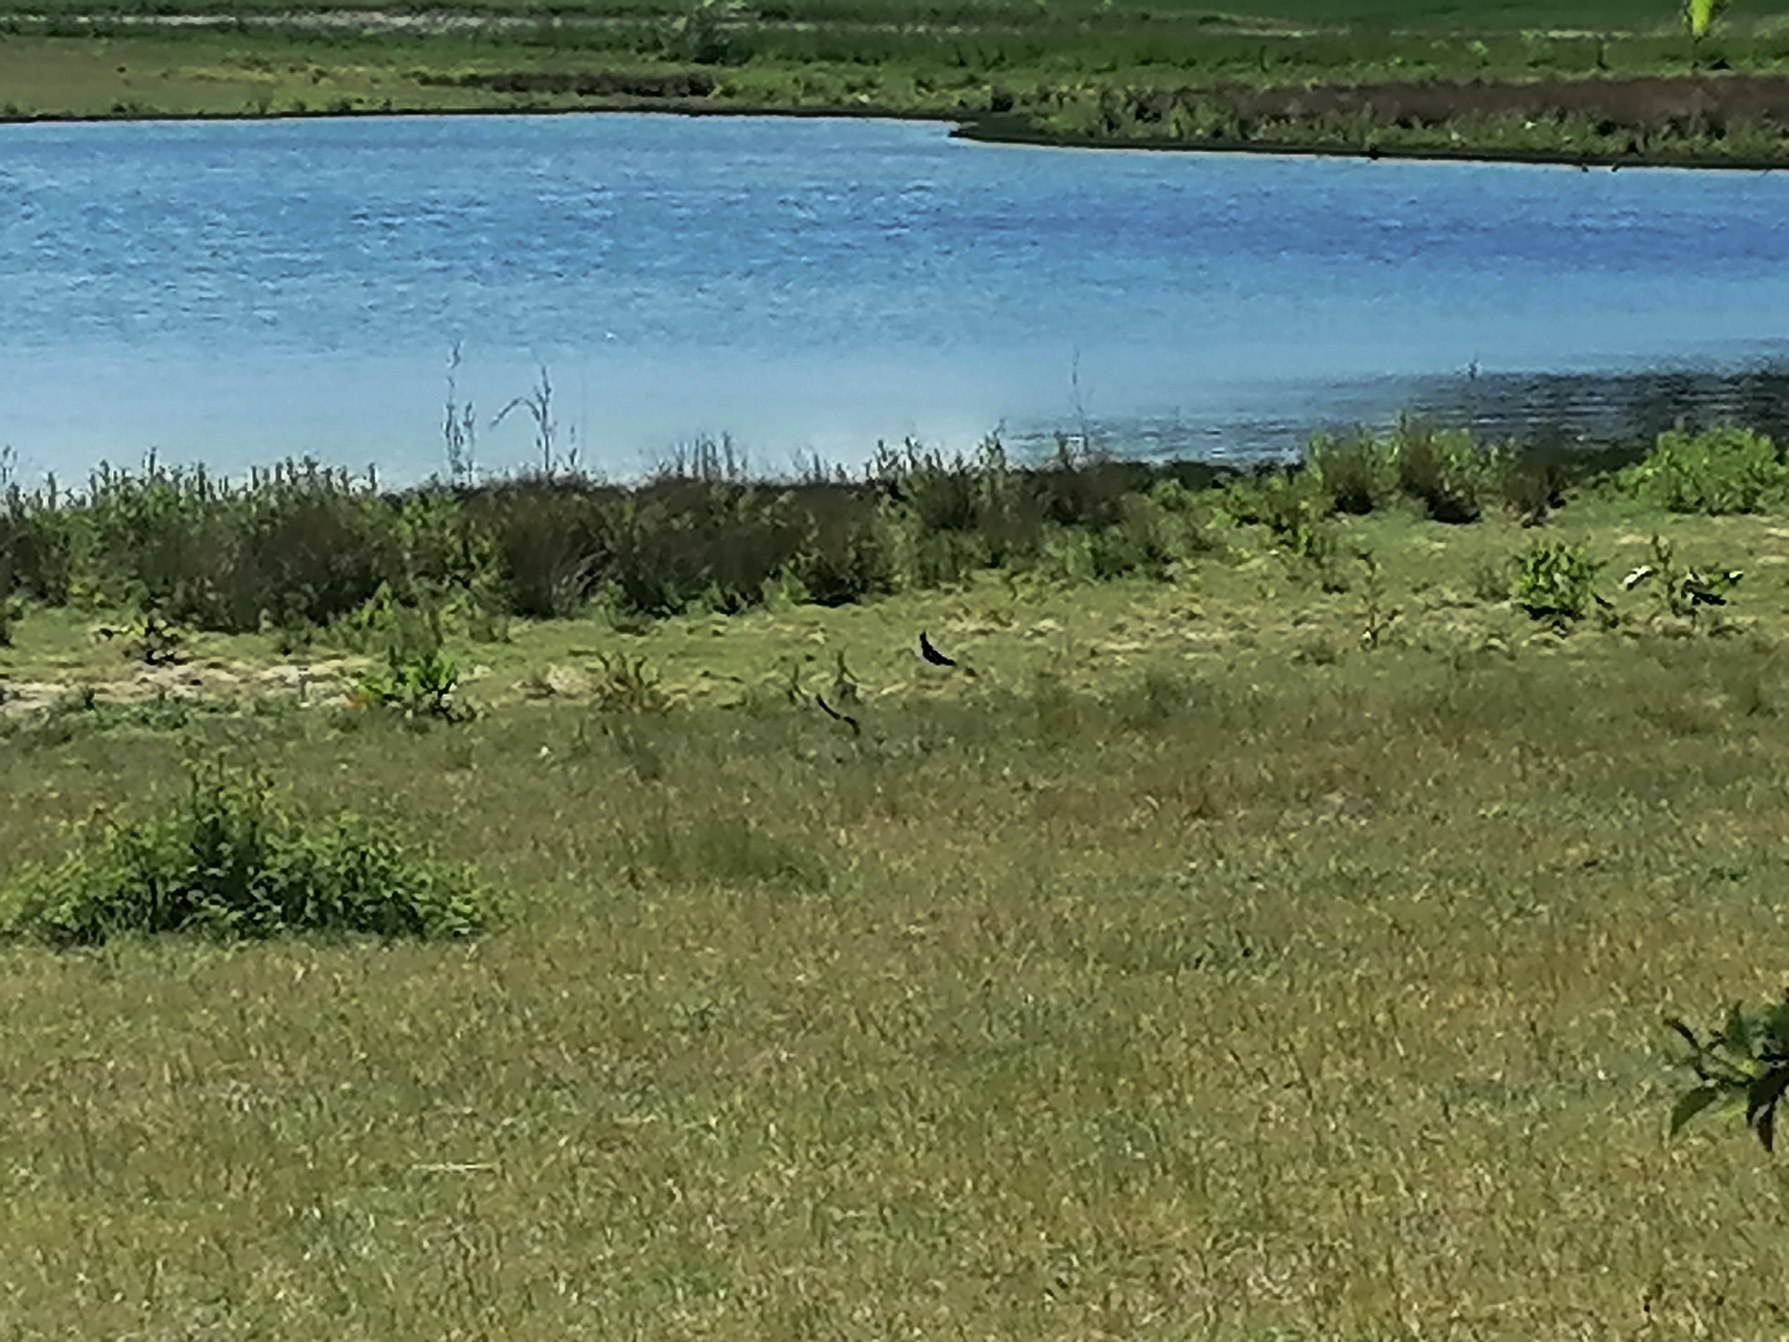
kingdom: Animalia
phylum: Chordata
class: Aves
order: Charadriiformes
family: Charadriidae
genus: Vanellus
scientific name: Vanellus vanellus
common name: Vibe
